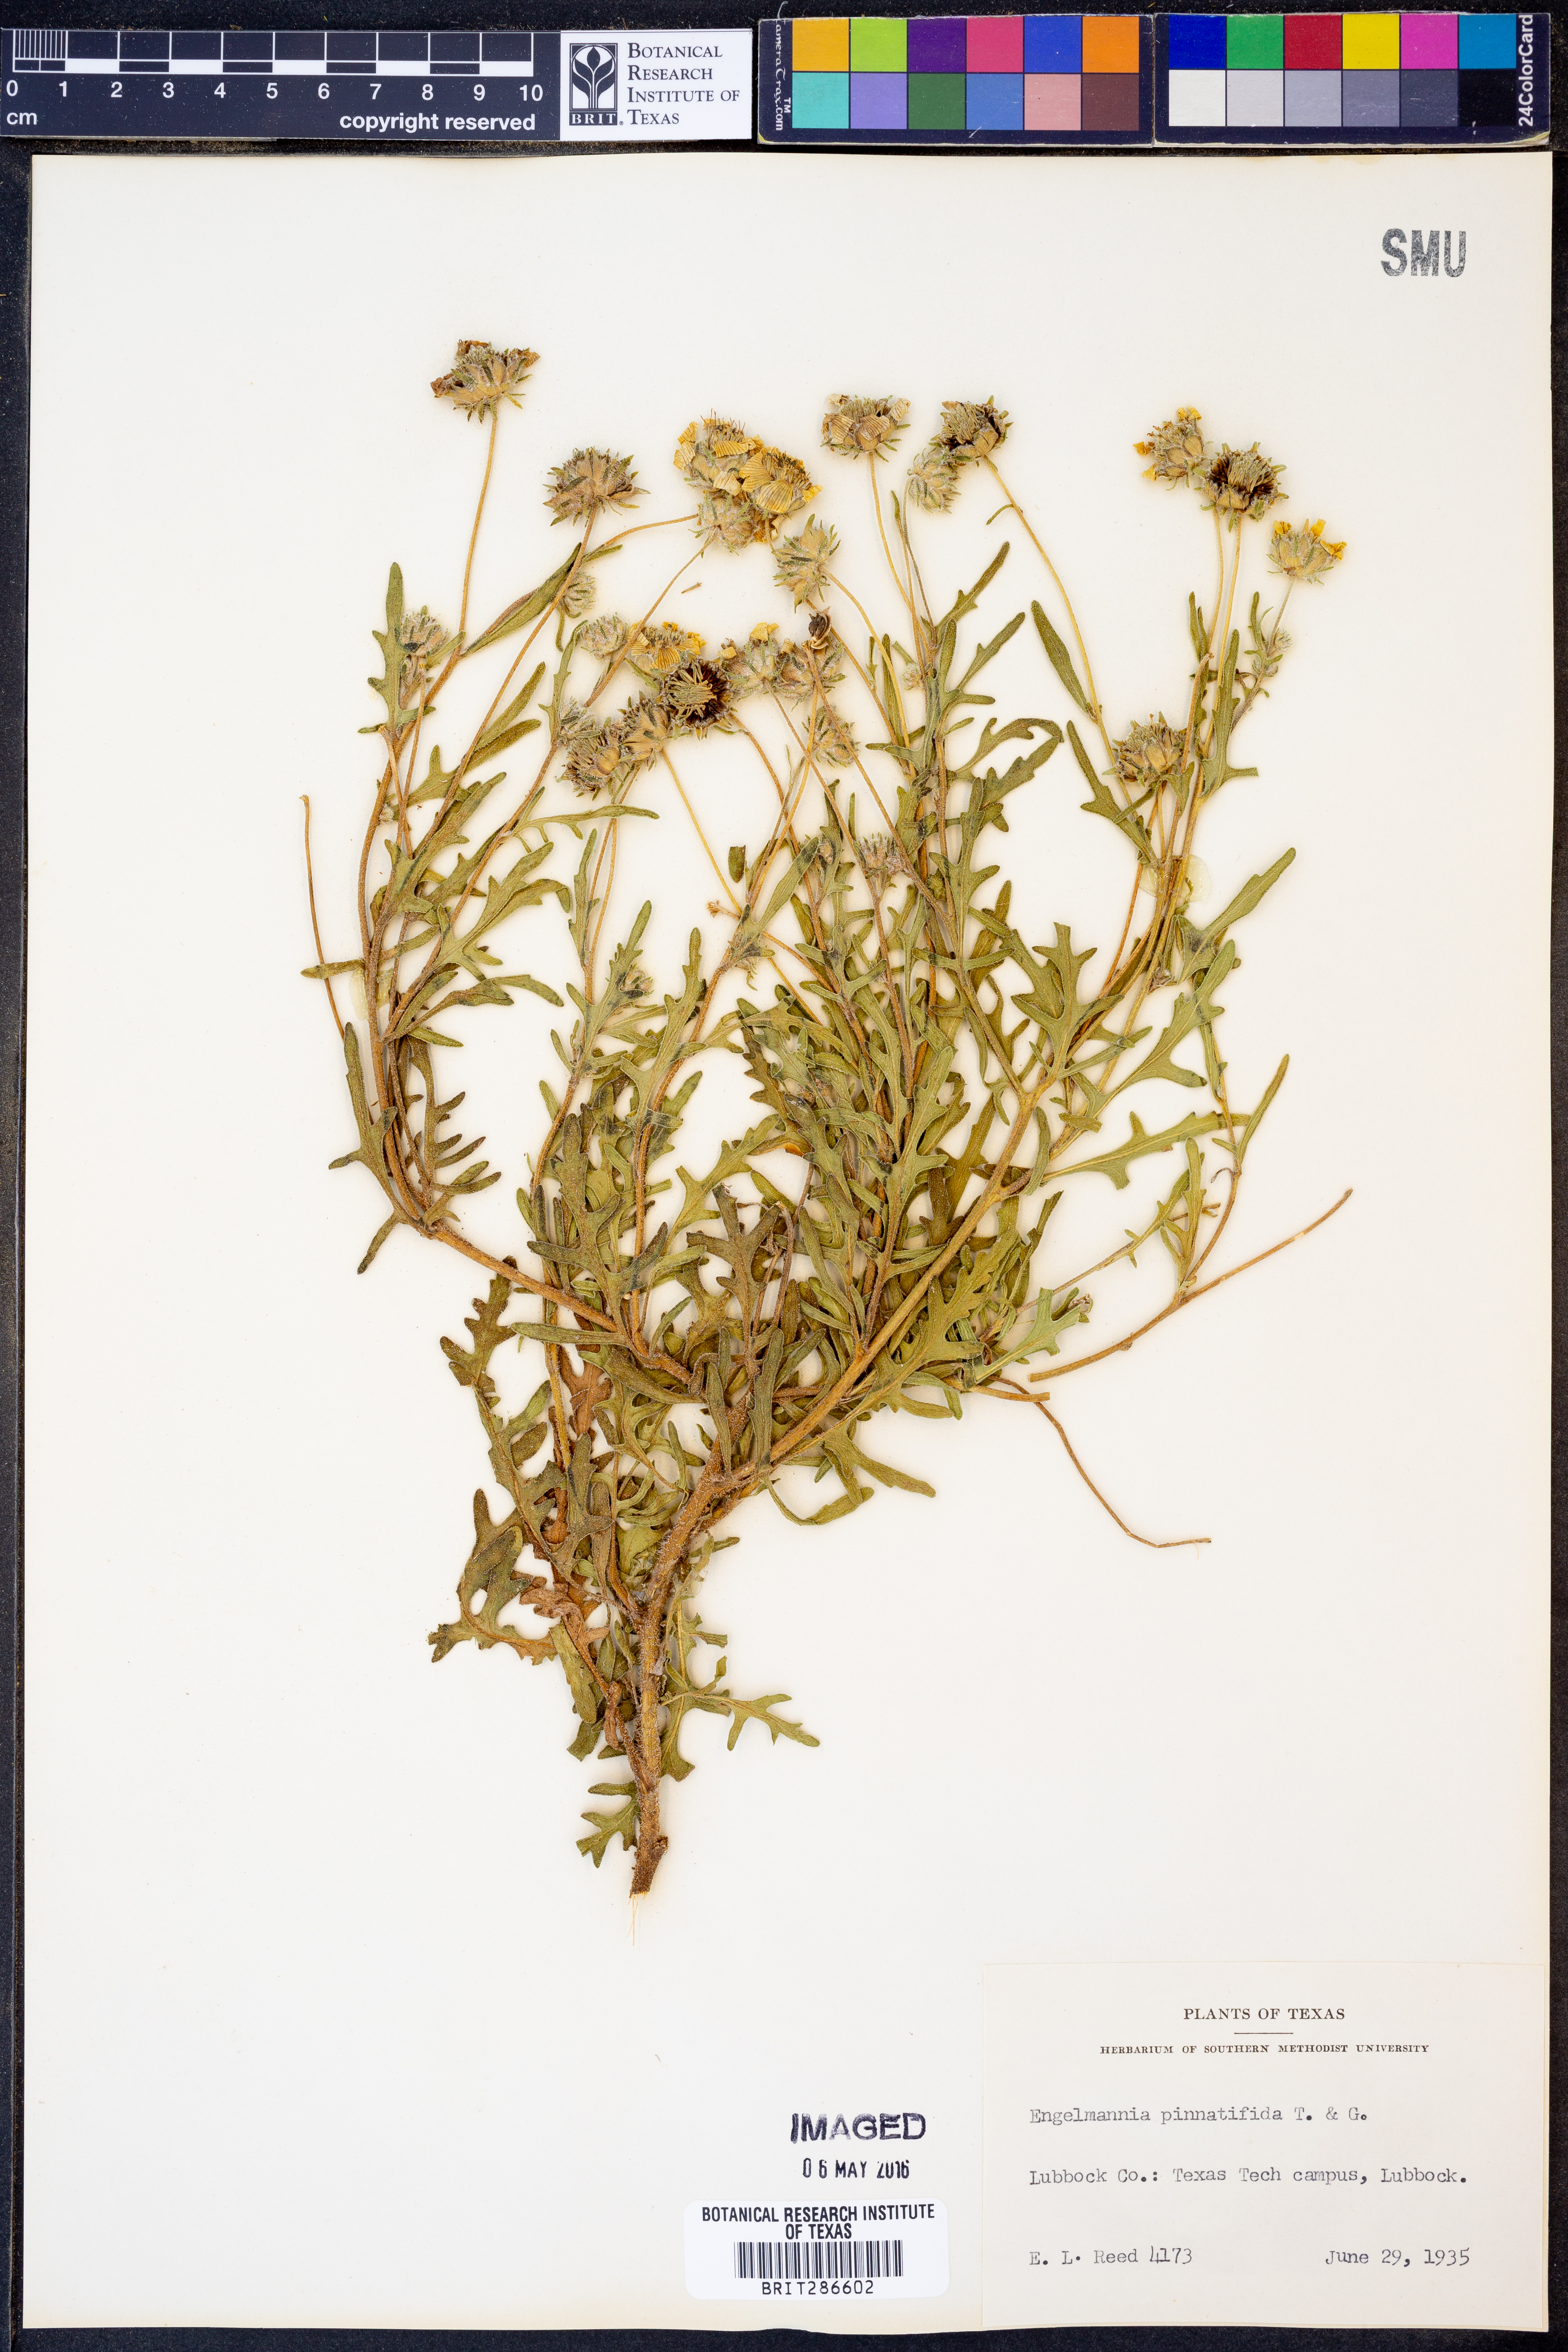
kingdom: Plantae
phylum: Tracheophyta
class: Magnoliopsida
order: Asterales
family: Asteraceae
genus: Engelmannia
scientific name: Engelmannia peristenia
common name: Engelmann's daisy
